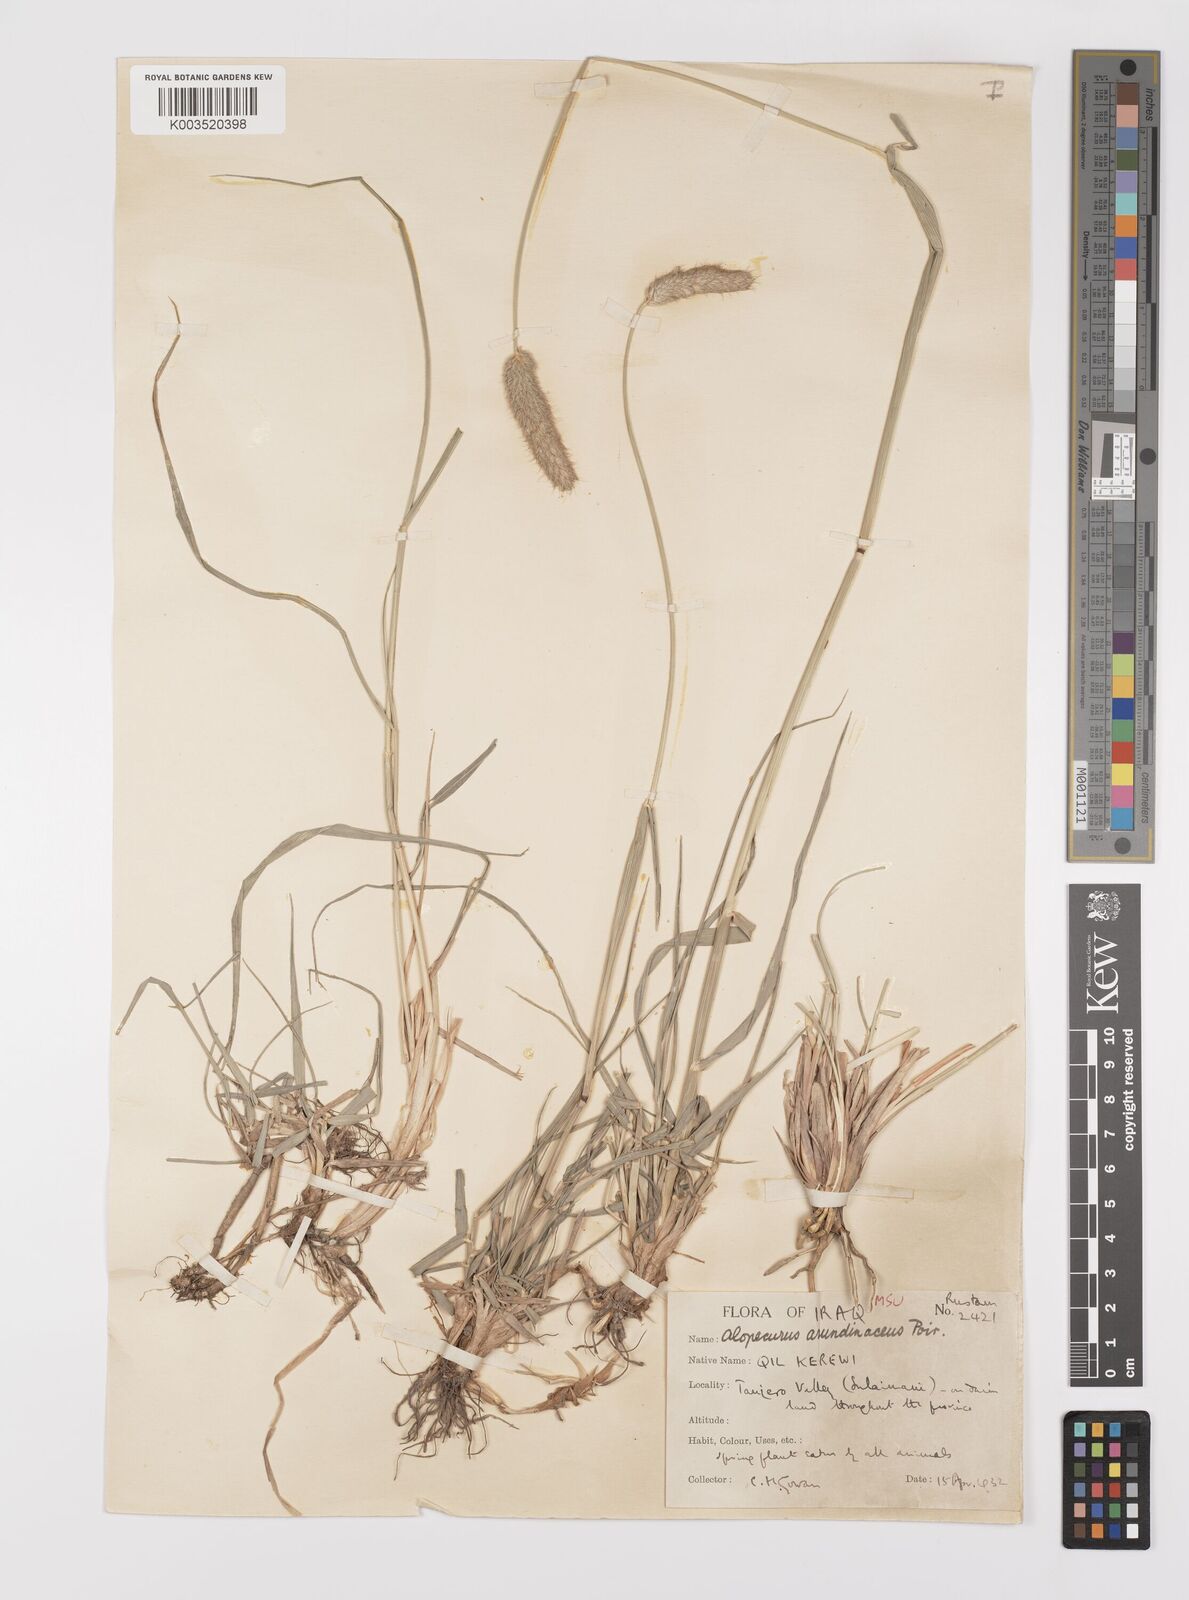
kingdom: Plantae
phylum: Tracheophyta
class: Liliopsida
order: Poales
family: Poaceae
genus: Alopecurus
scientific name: Alopecurus arundinaceus
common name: Creeping meadow foxtail
